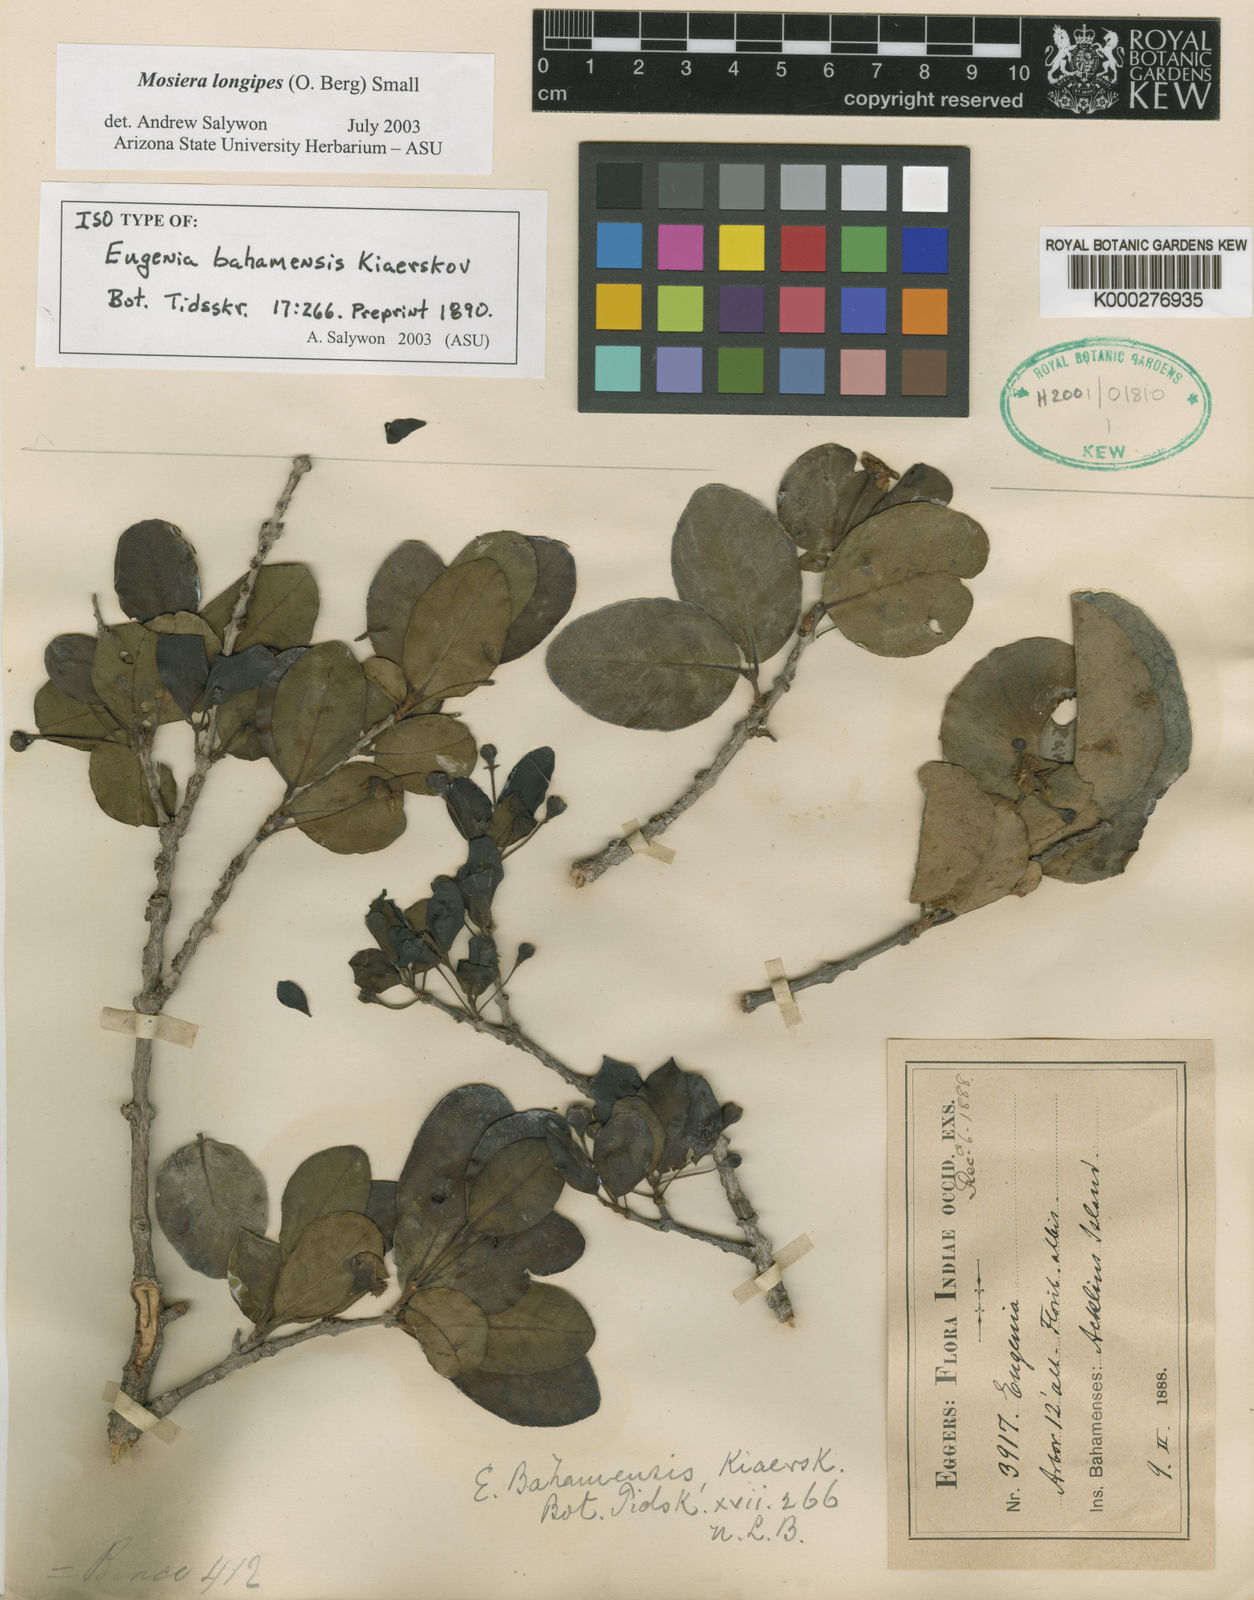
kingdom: Plantae
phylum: Tracheophyta
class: Magnoliopsida
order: Myrtales
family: Myrtaceae
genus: Mosiera
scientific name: Mosiera longipes
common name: Bahama stopper
